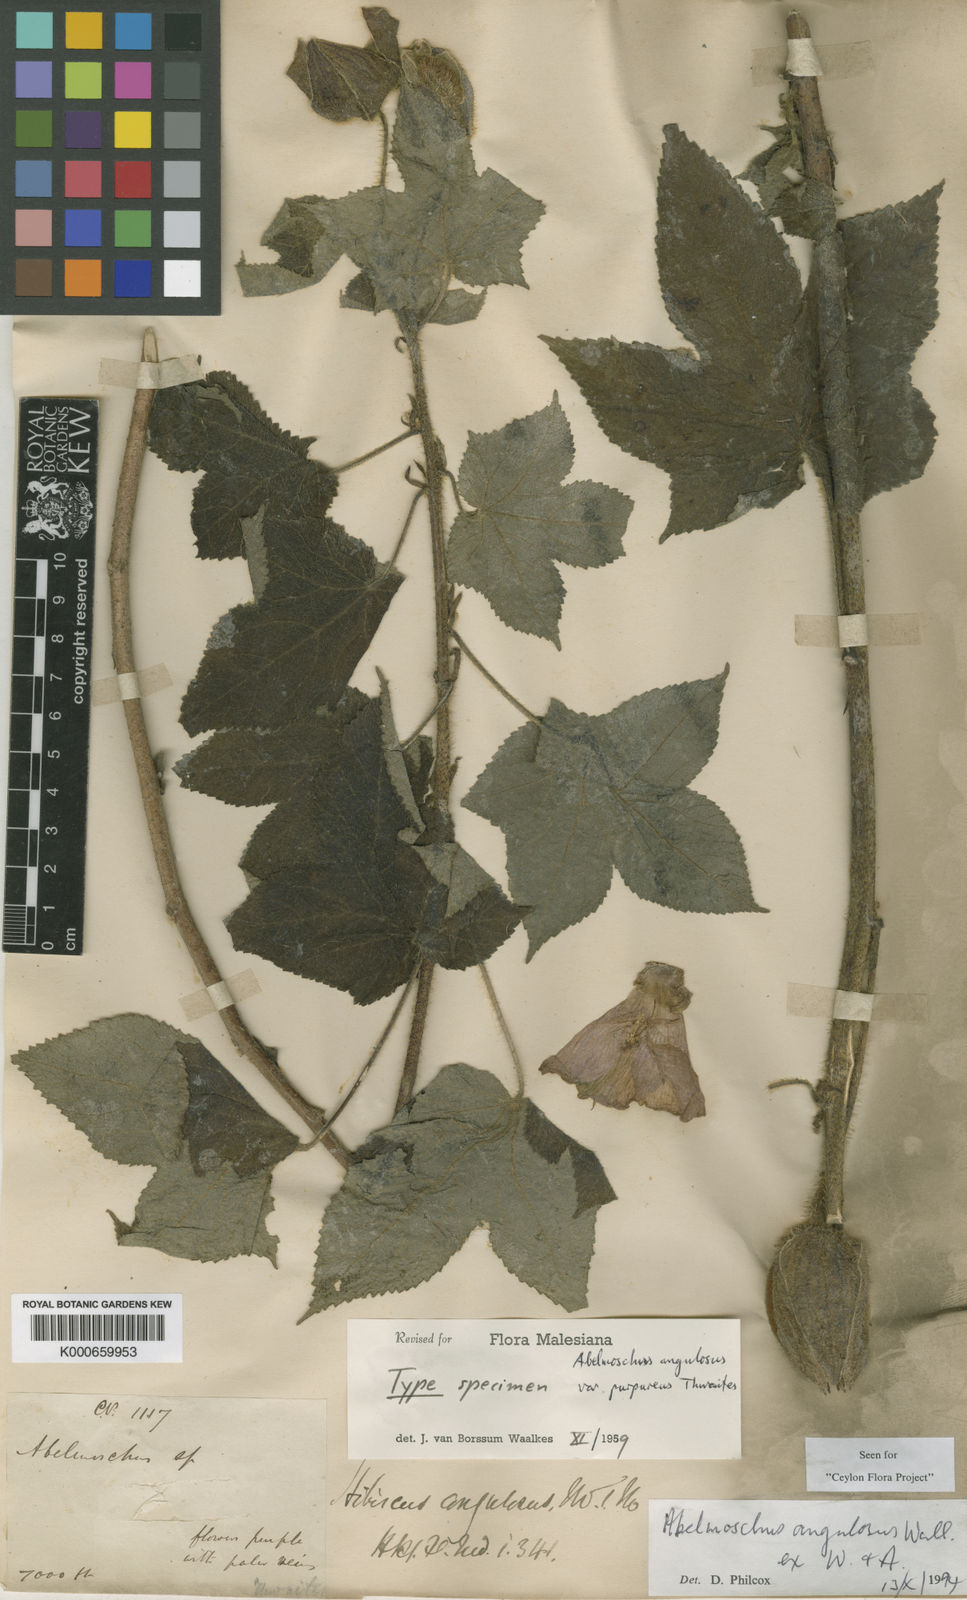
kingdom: Plantae
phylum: Tracheophyta
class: Magnoliopsida
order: Malvales
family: Malvaceae
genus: Abelmoschus
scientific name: Abelmoschus angulosus
